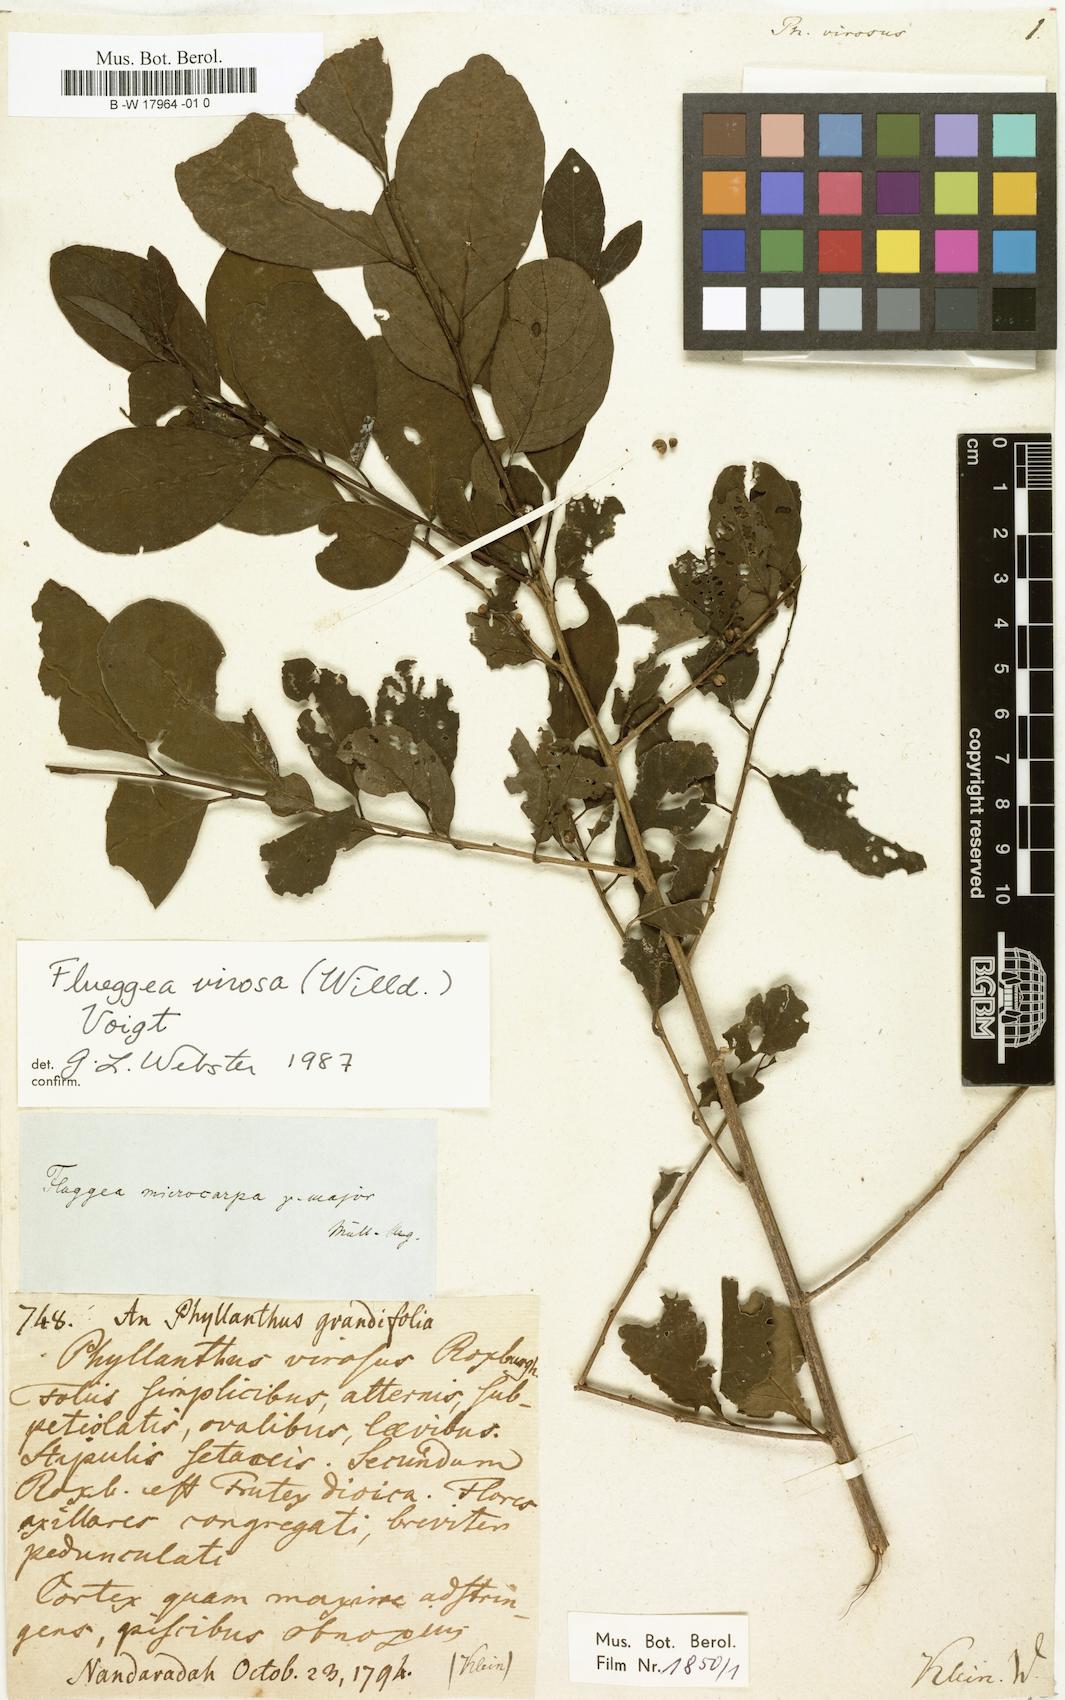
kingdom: Plantae
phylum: Tracheophyta
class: Magnoliopsida
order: Malpighiales
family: Phyllanthaceae
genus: Phyllanthus
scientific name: Phyllanthus virosus
